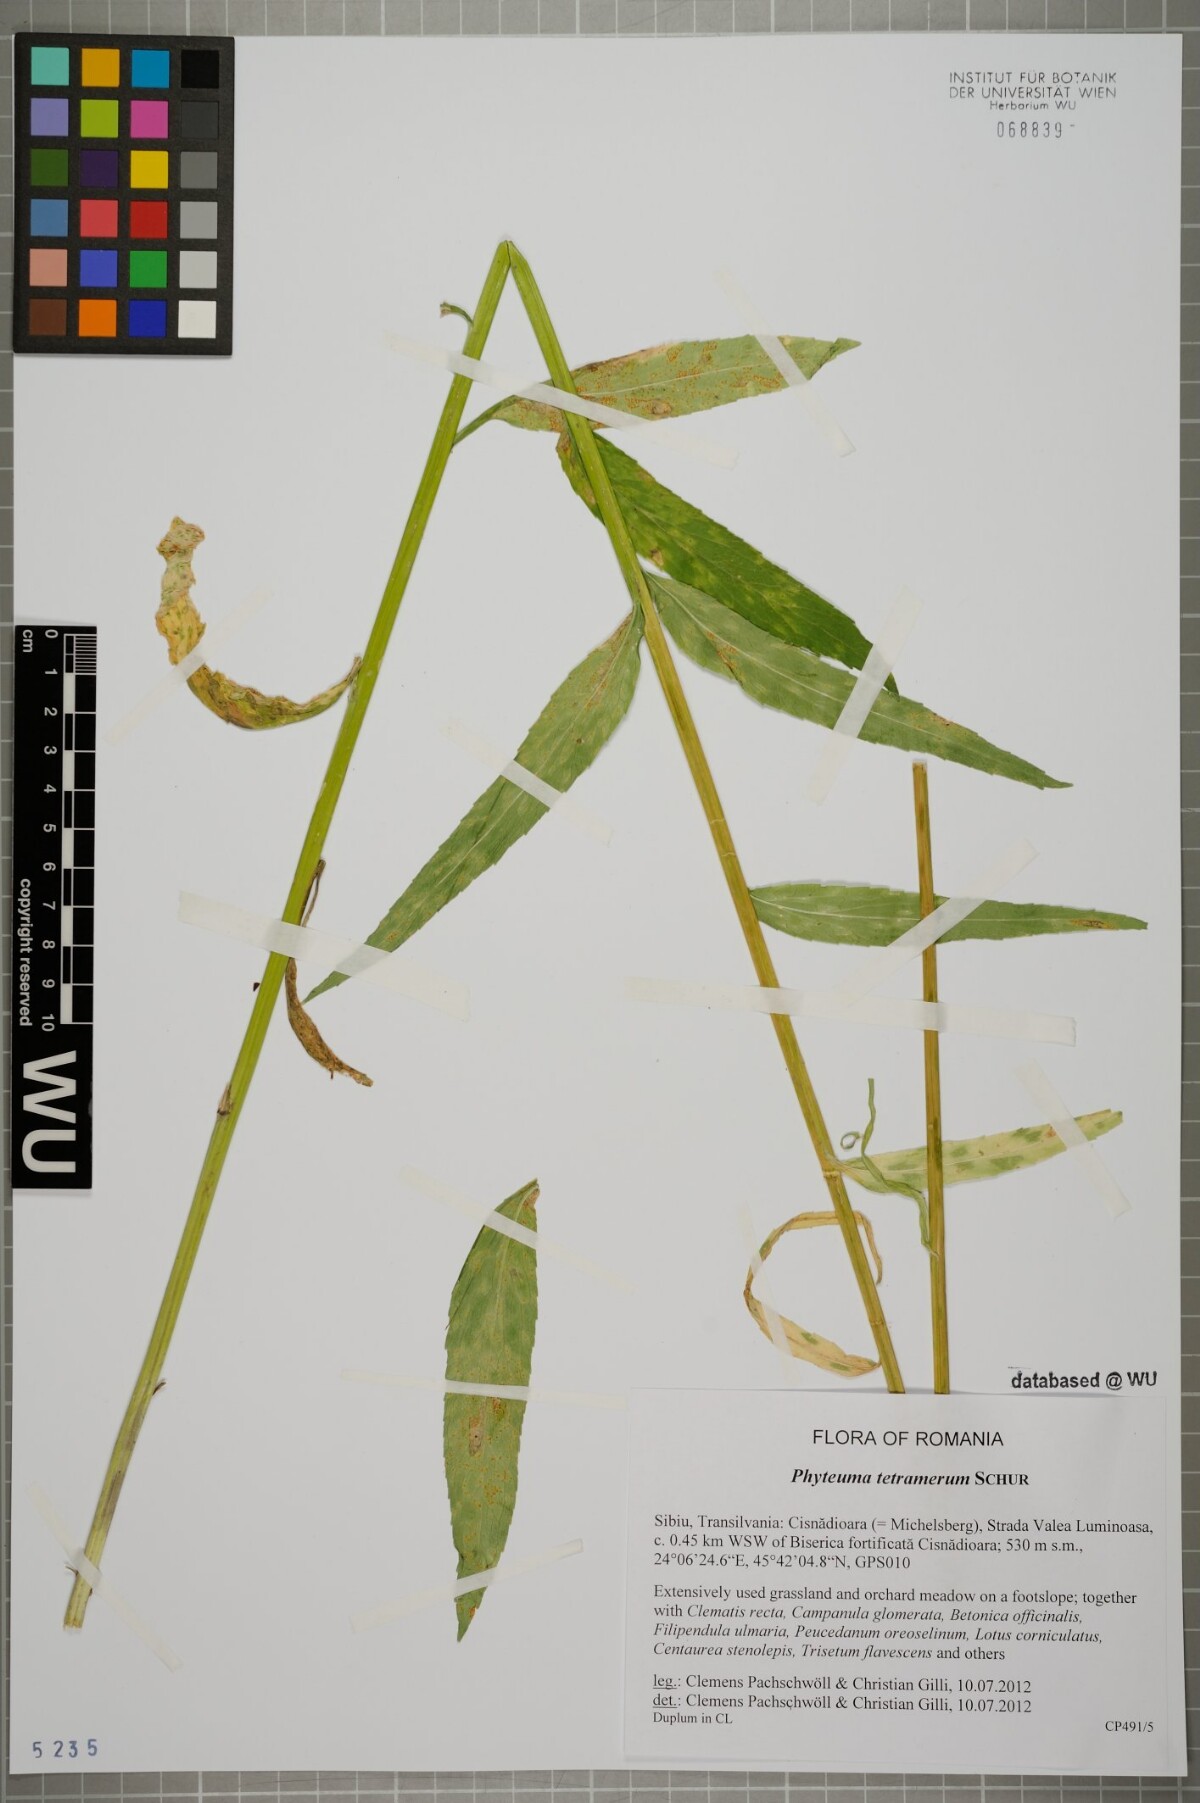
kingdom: Plantae
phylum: Tracheophyta
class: Magnoliopsida
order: Asterales
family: Campanulaceae
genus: Phyteuma
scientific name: Phyteuma tetramerum
